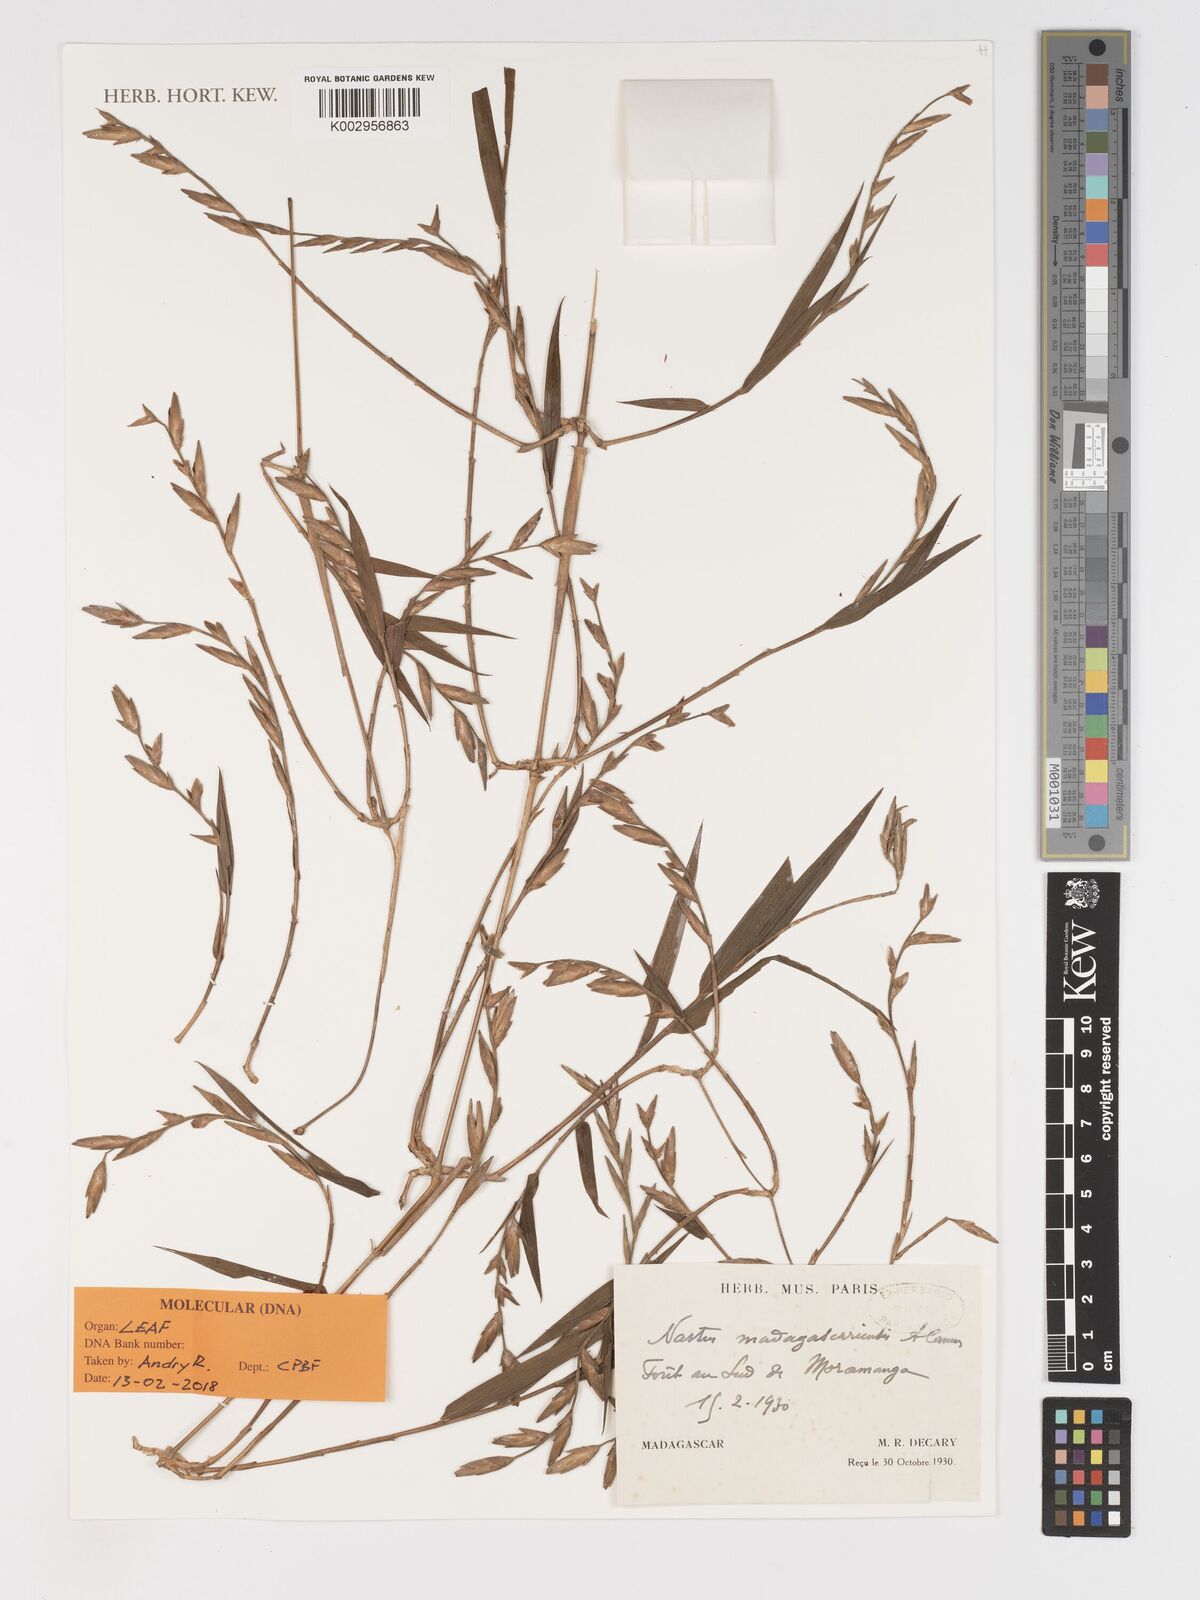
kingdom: Plantae
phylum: Tracheophyta
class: Liliopsida
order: Poales
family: Poaceae
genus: Nastus
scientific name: Nastus madagascariensis
